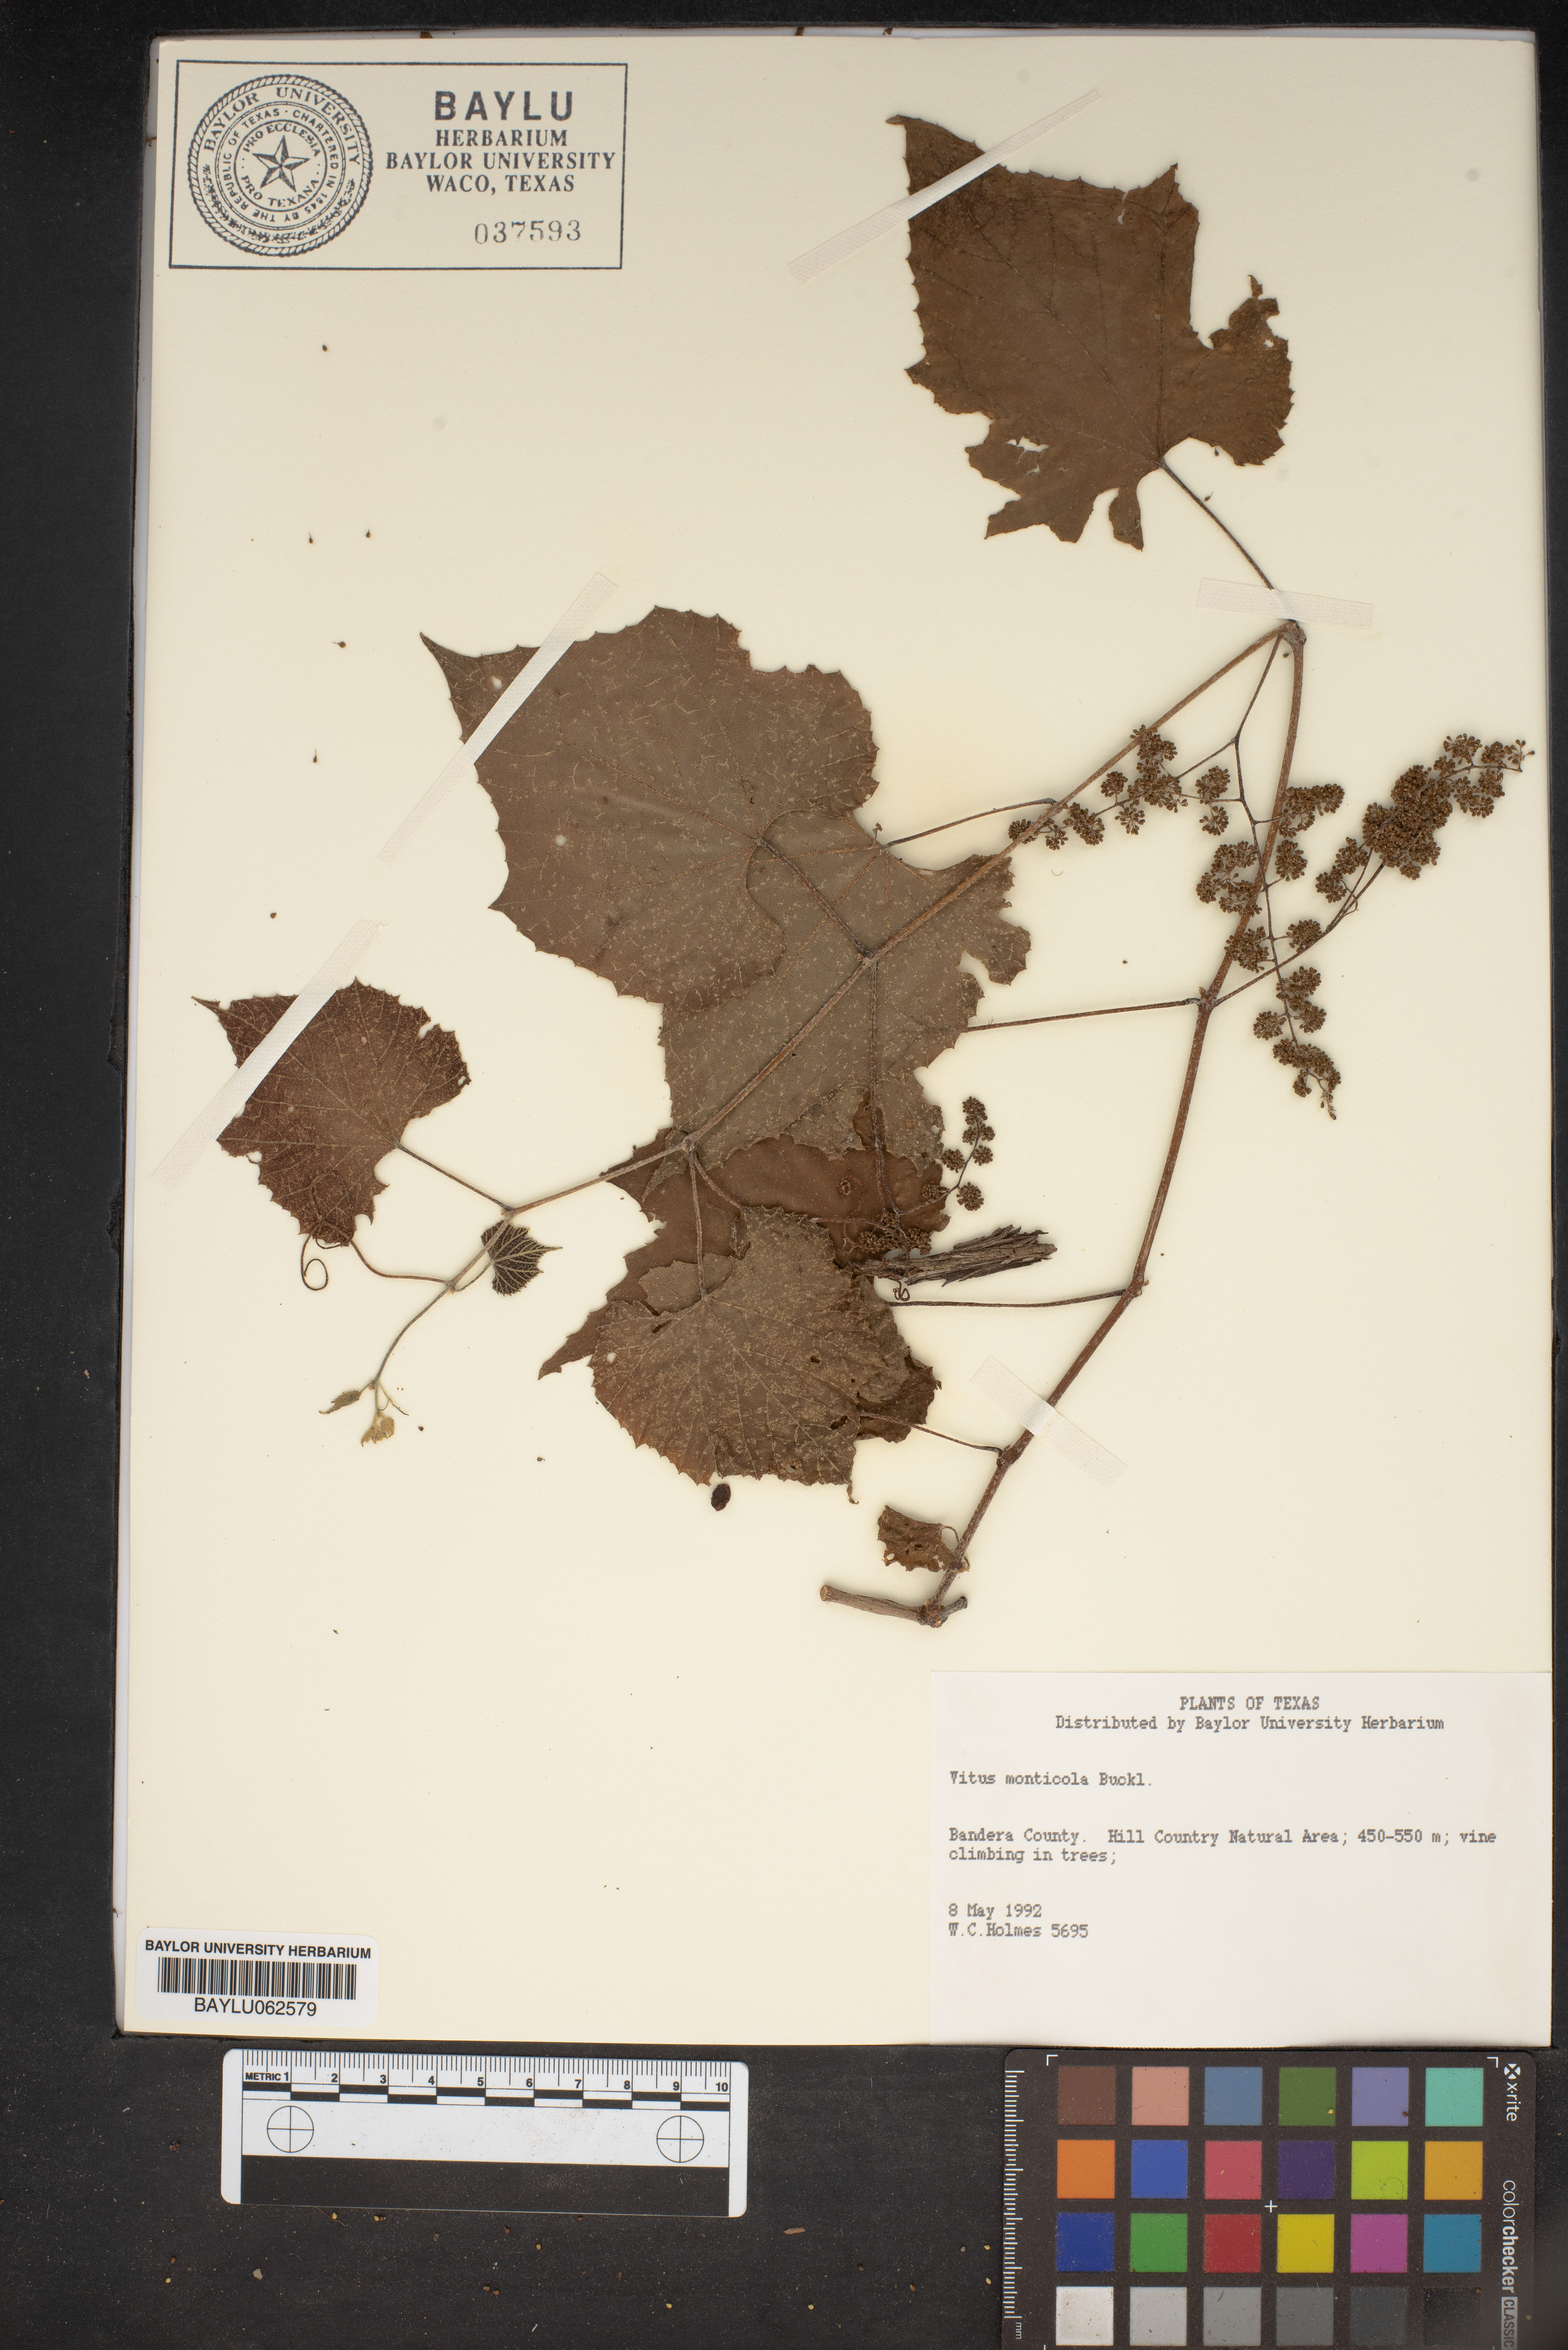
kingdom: Plantae
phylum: Tracheophyta
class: Magnoliopsida
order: Vitales
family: Vitaceae
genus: Vitis
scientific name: Vitis monticola
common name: Mountain grape
